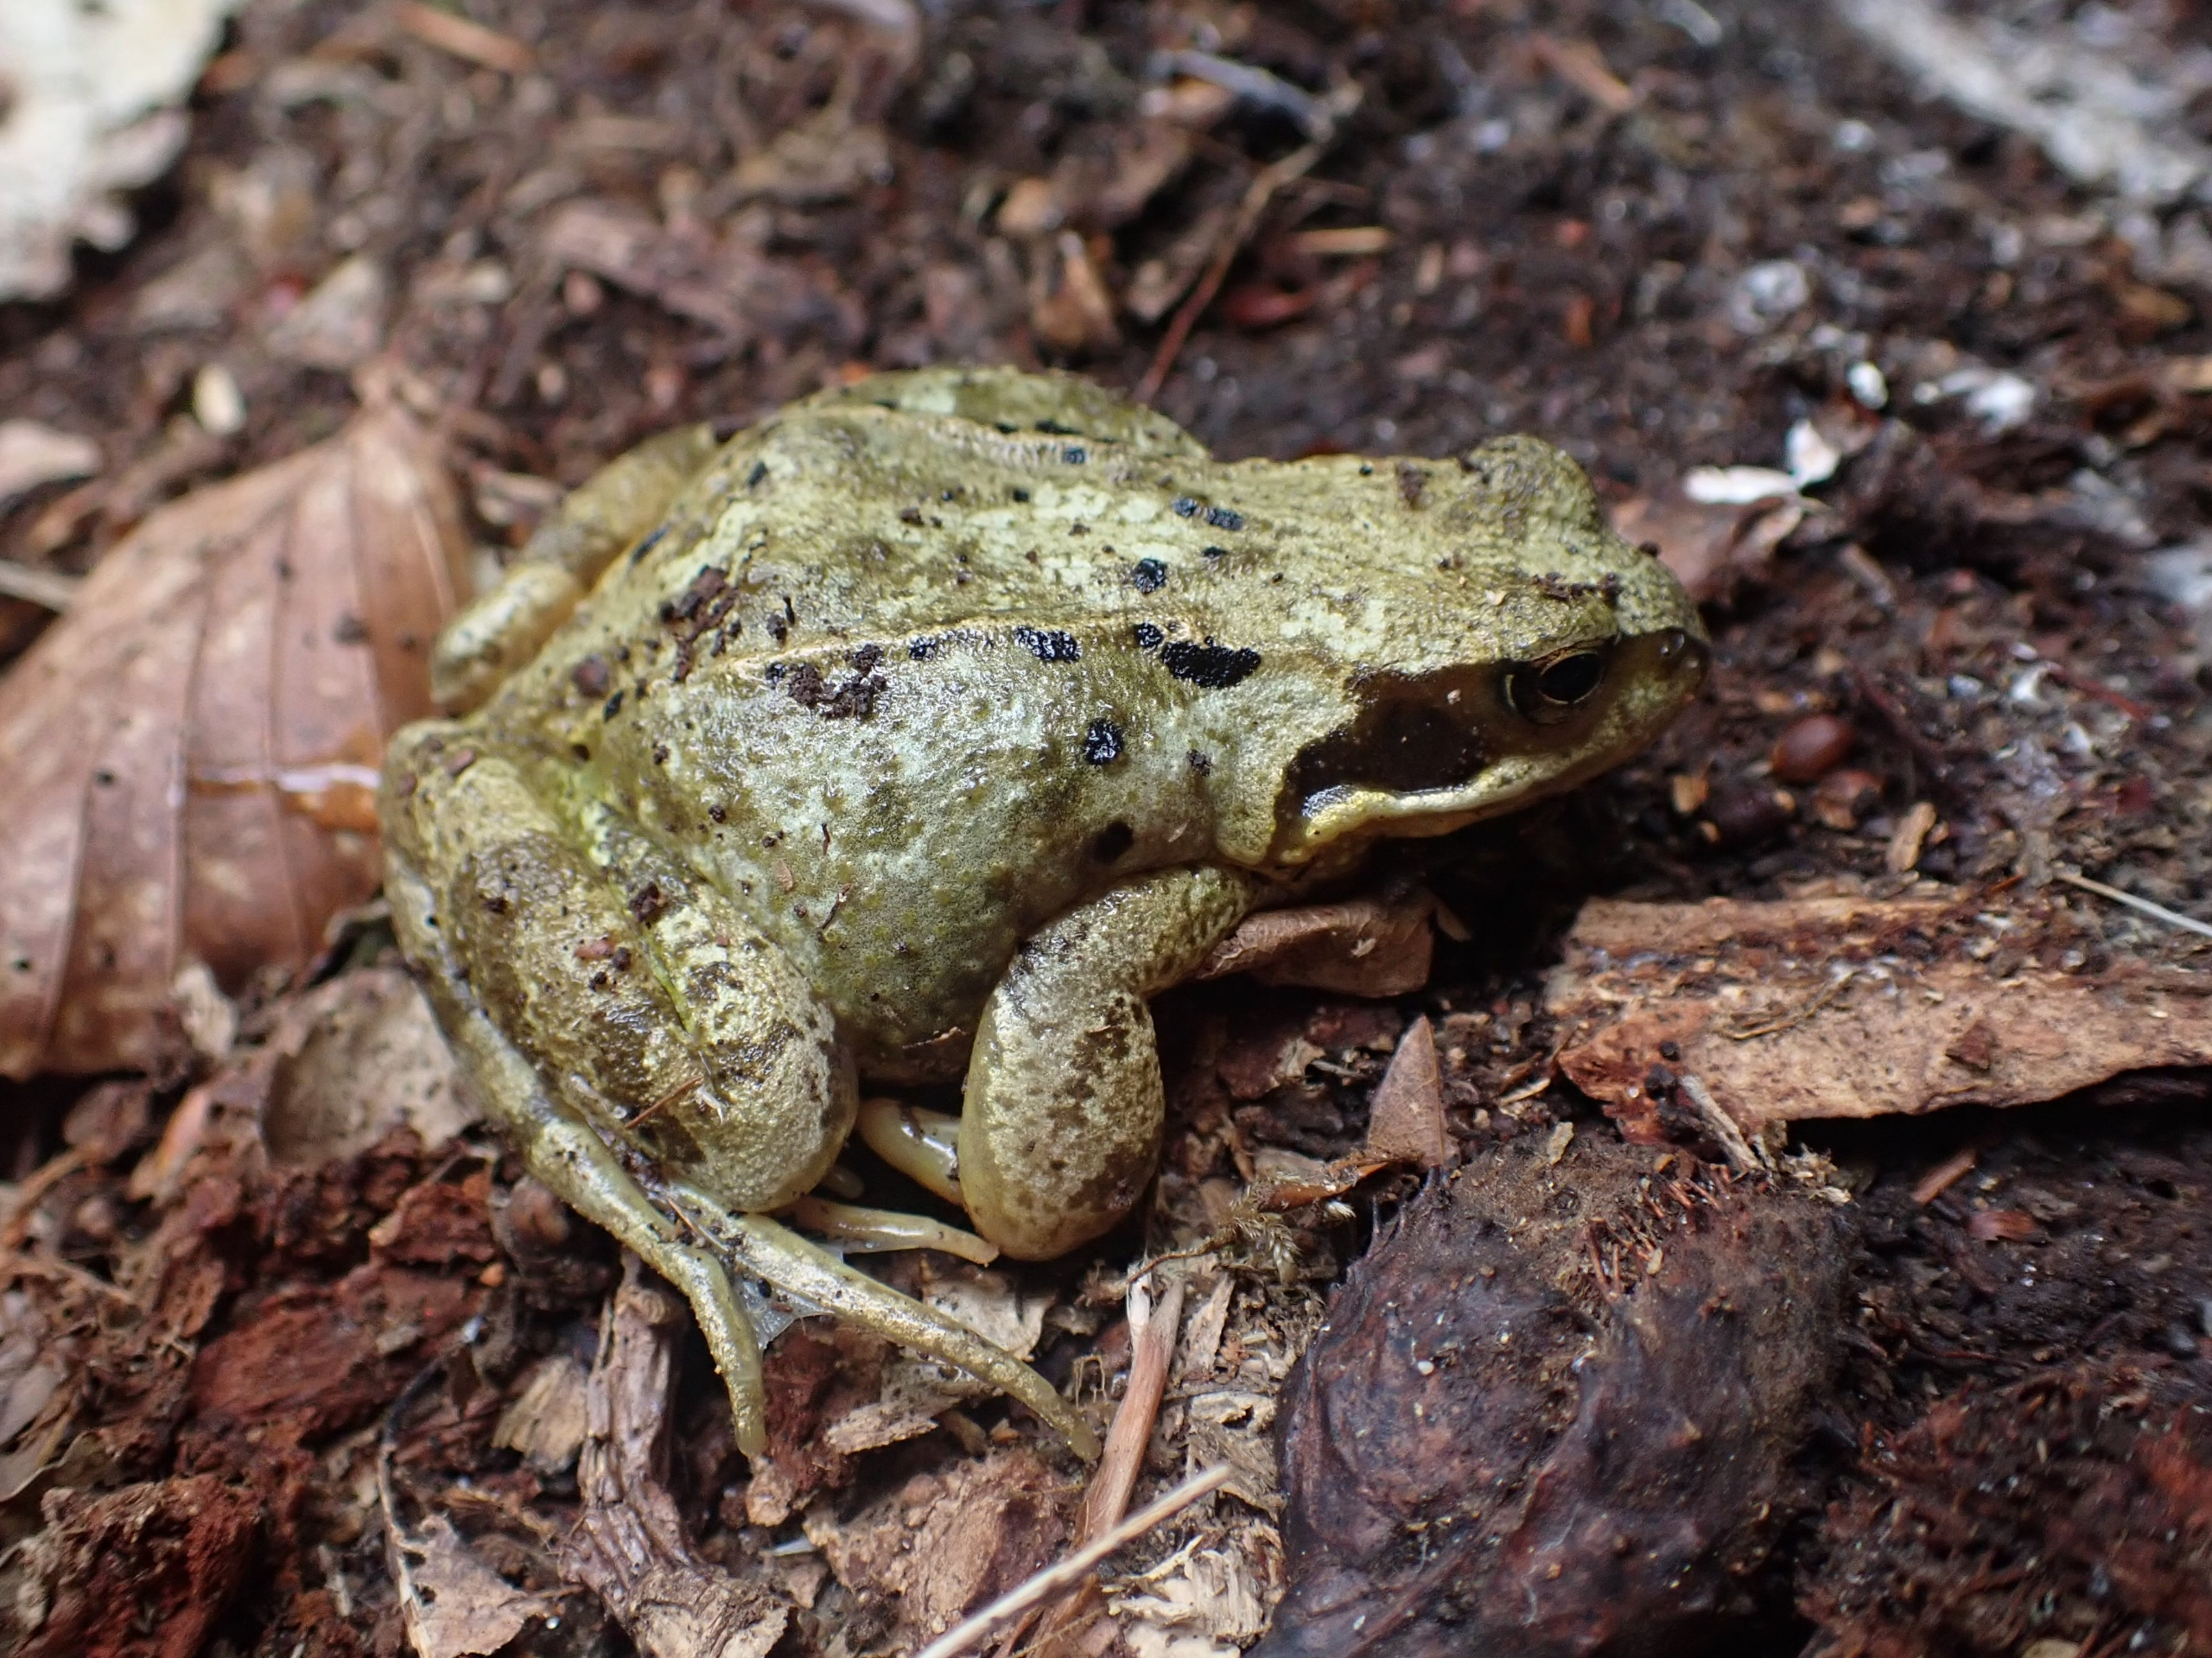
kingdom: Animalia
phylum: Chordata
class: Amphibia
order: Anura
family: Ranidae
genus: Rana
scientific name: Rana temporaria
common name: Butsnudet frø
